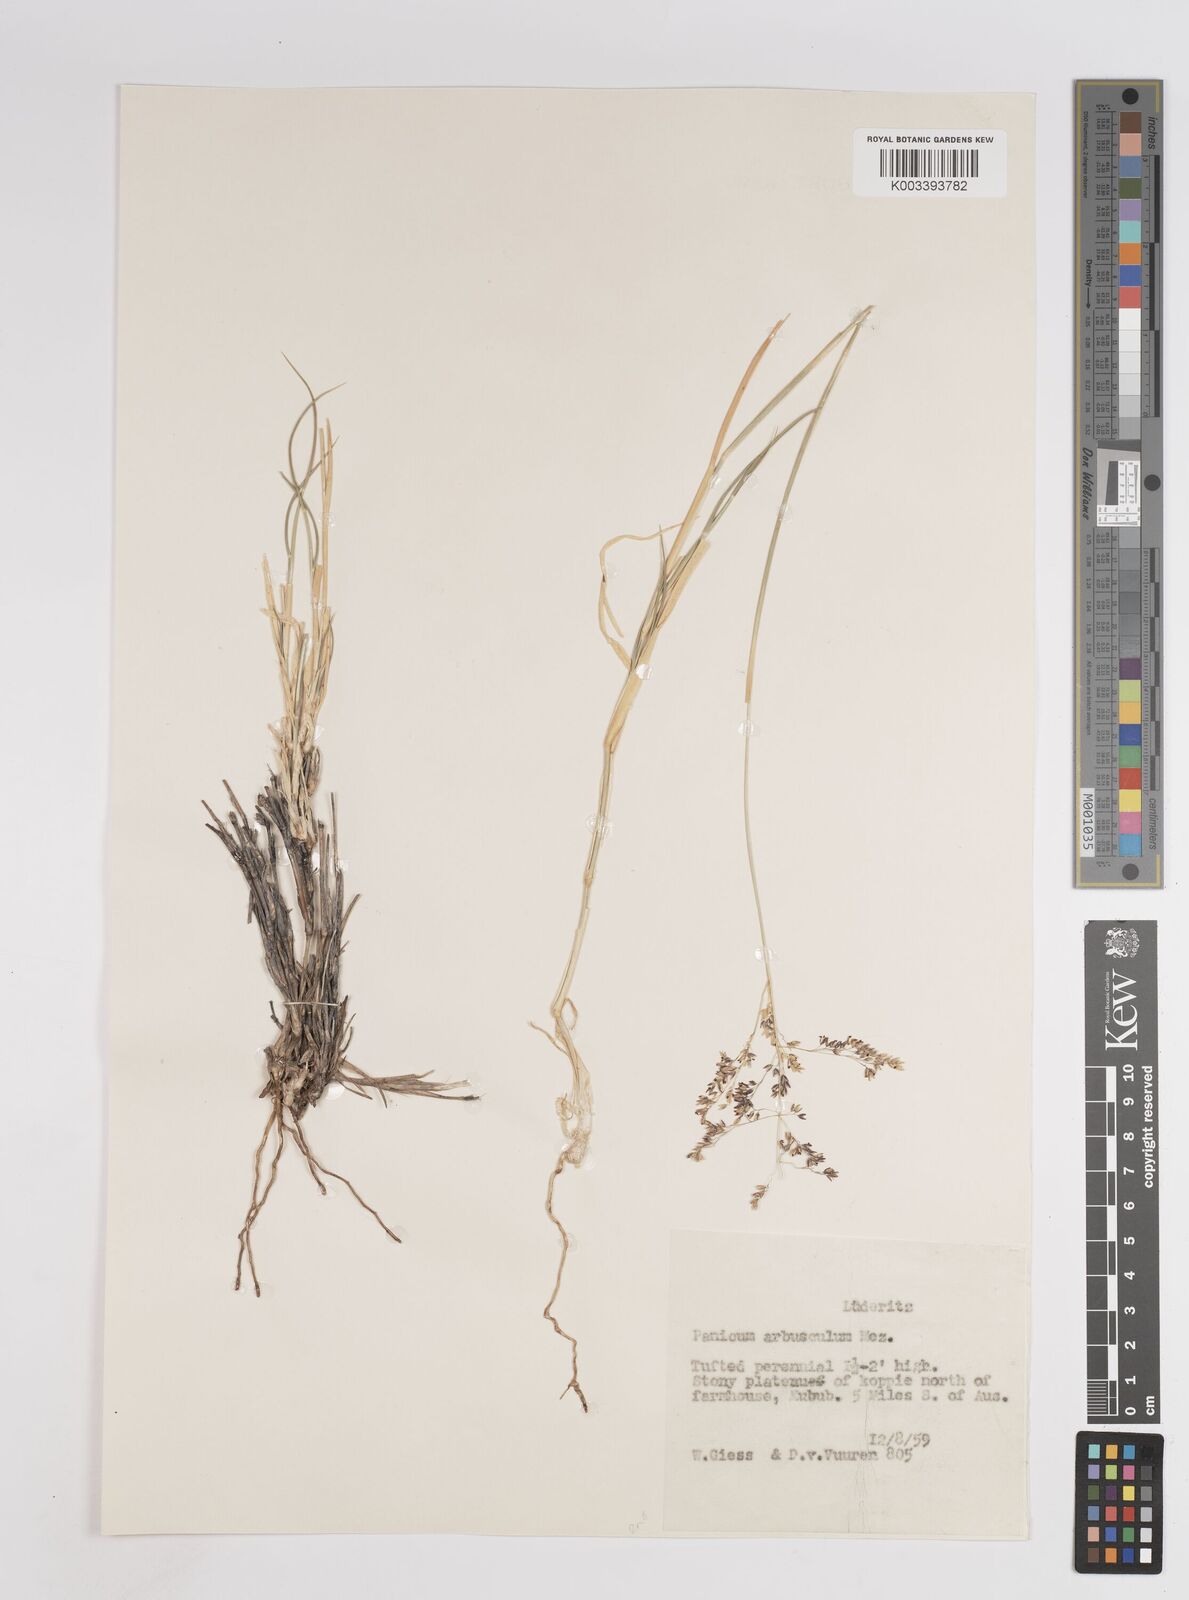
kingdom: Plantae
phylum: Tracheophyta
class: Liliopsida
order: Poales
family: Poaceae
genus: Panicum
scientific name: Panicum arbusculum
